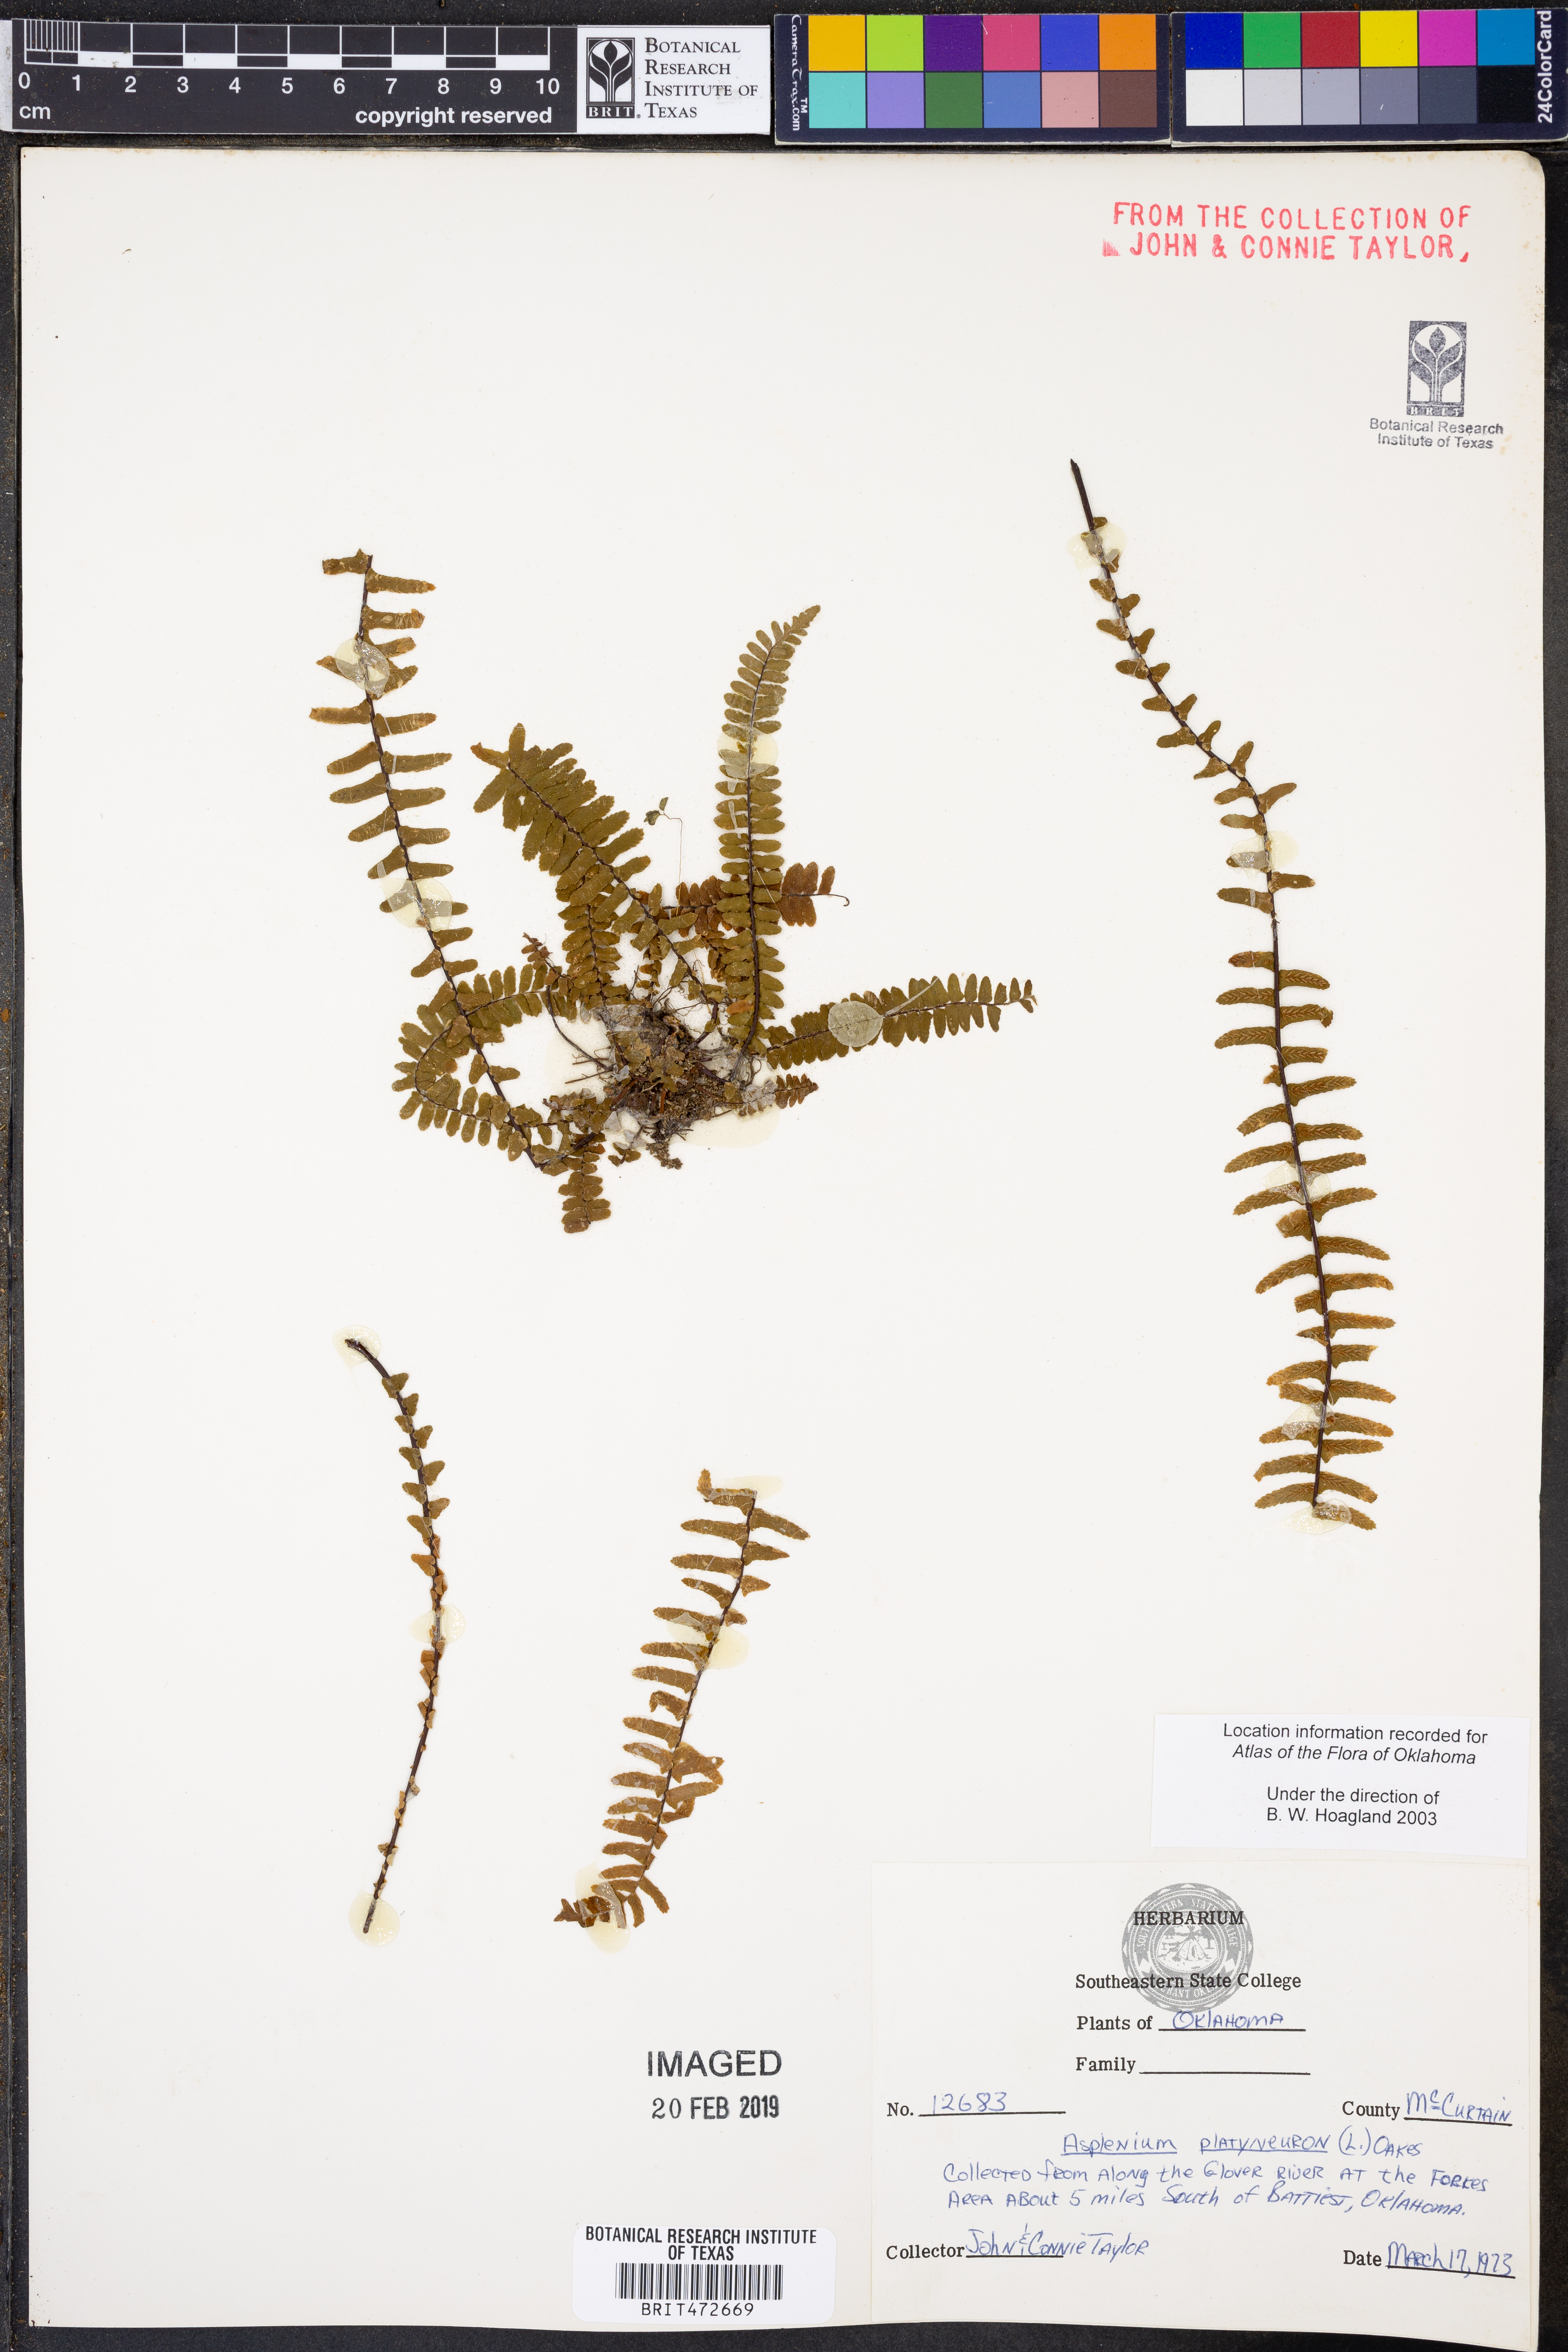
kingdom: Plantae
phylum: Tracheophyta
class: Polypodiopsida
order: Polypodiales
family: Aspleniaceae
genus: Asplenium
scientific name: Asplenium platyneuron
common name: Ebony spleenwort
